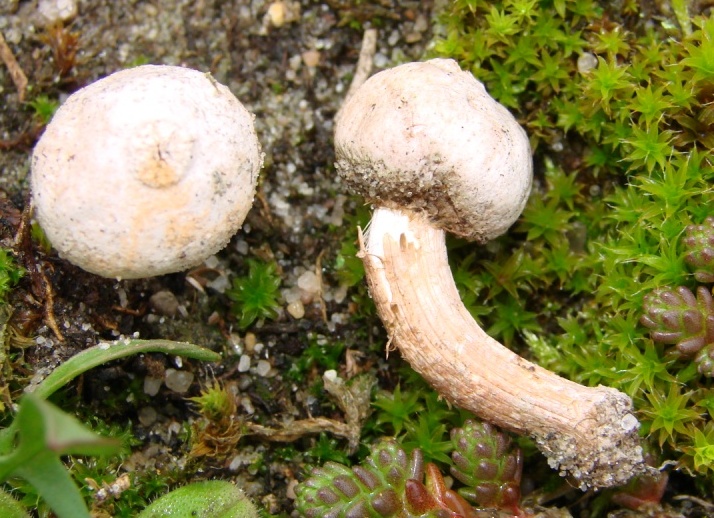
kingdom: Fungi
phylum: Basidiomycota
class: Agaricomycetes
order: Agaricales
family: Agaricaceae
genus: Tulostoma
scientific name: Tulostoma fimbriatum
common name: frynset stilkbovist
